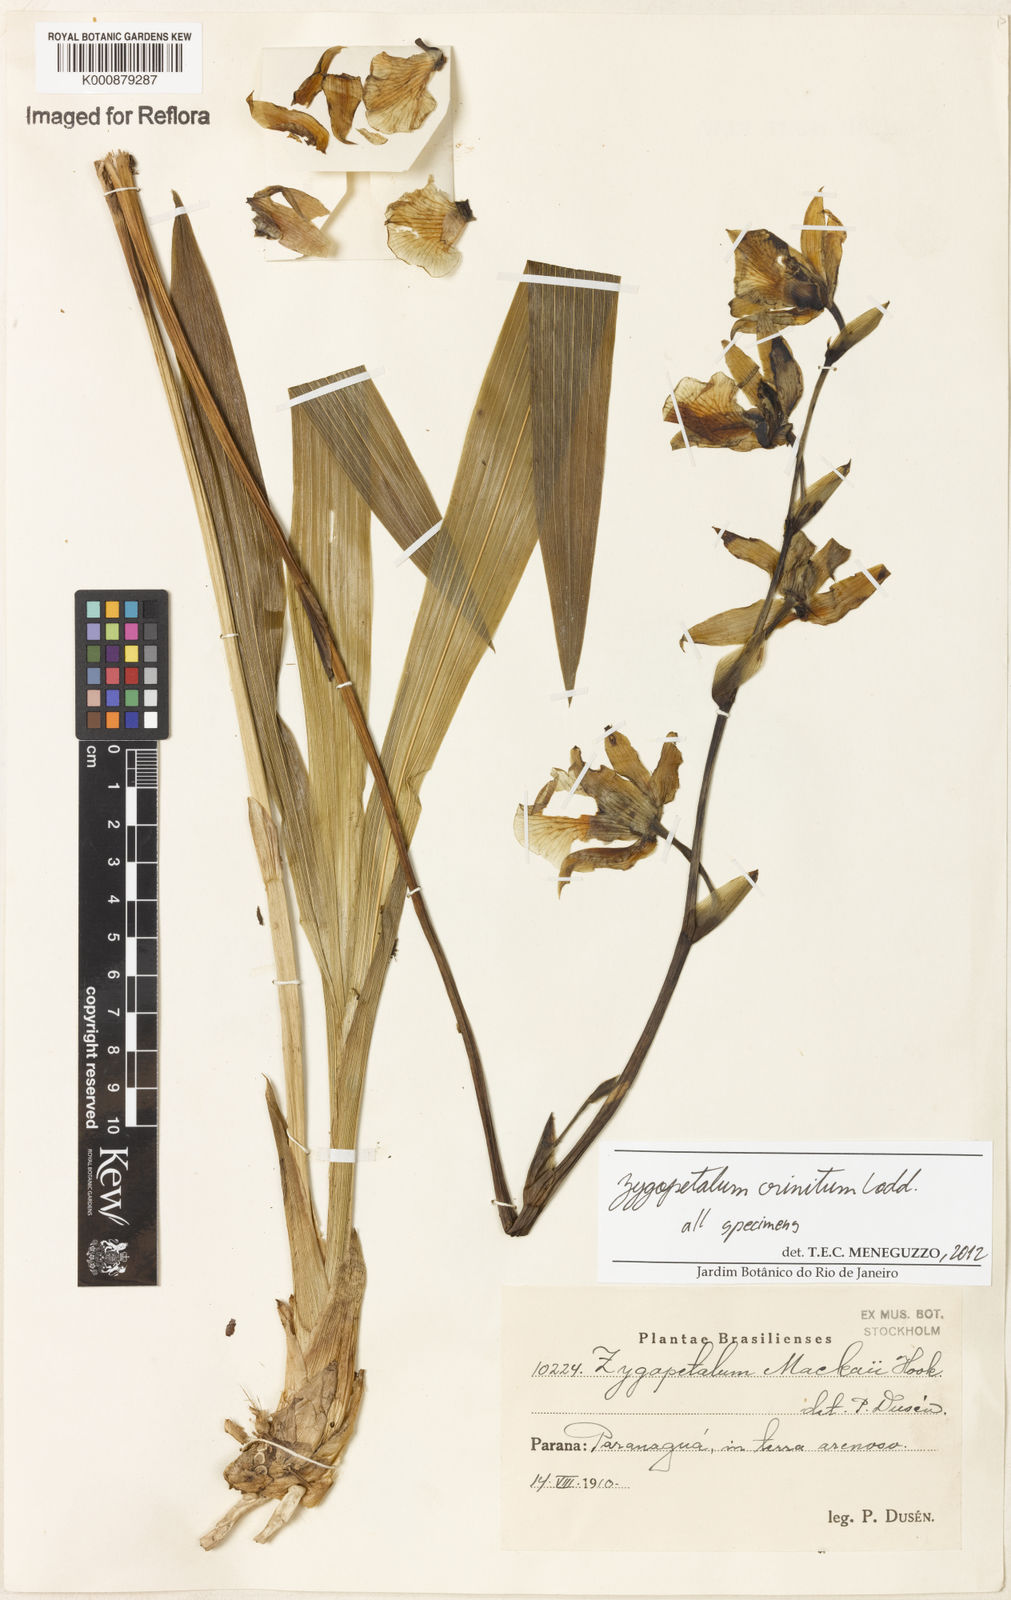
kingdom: Plantae
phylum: Tracheophyta
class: Liliopsida
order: Asparagales
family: Orchidaceae
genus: Zygopetalum
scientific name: Zygopetalum crinitum
